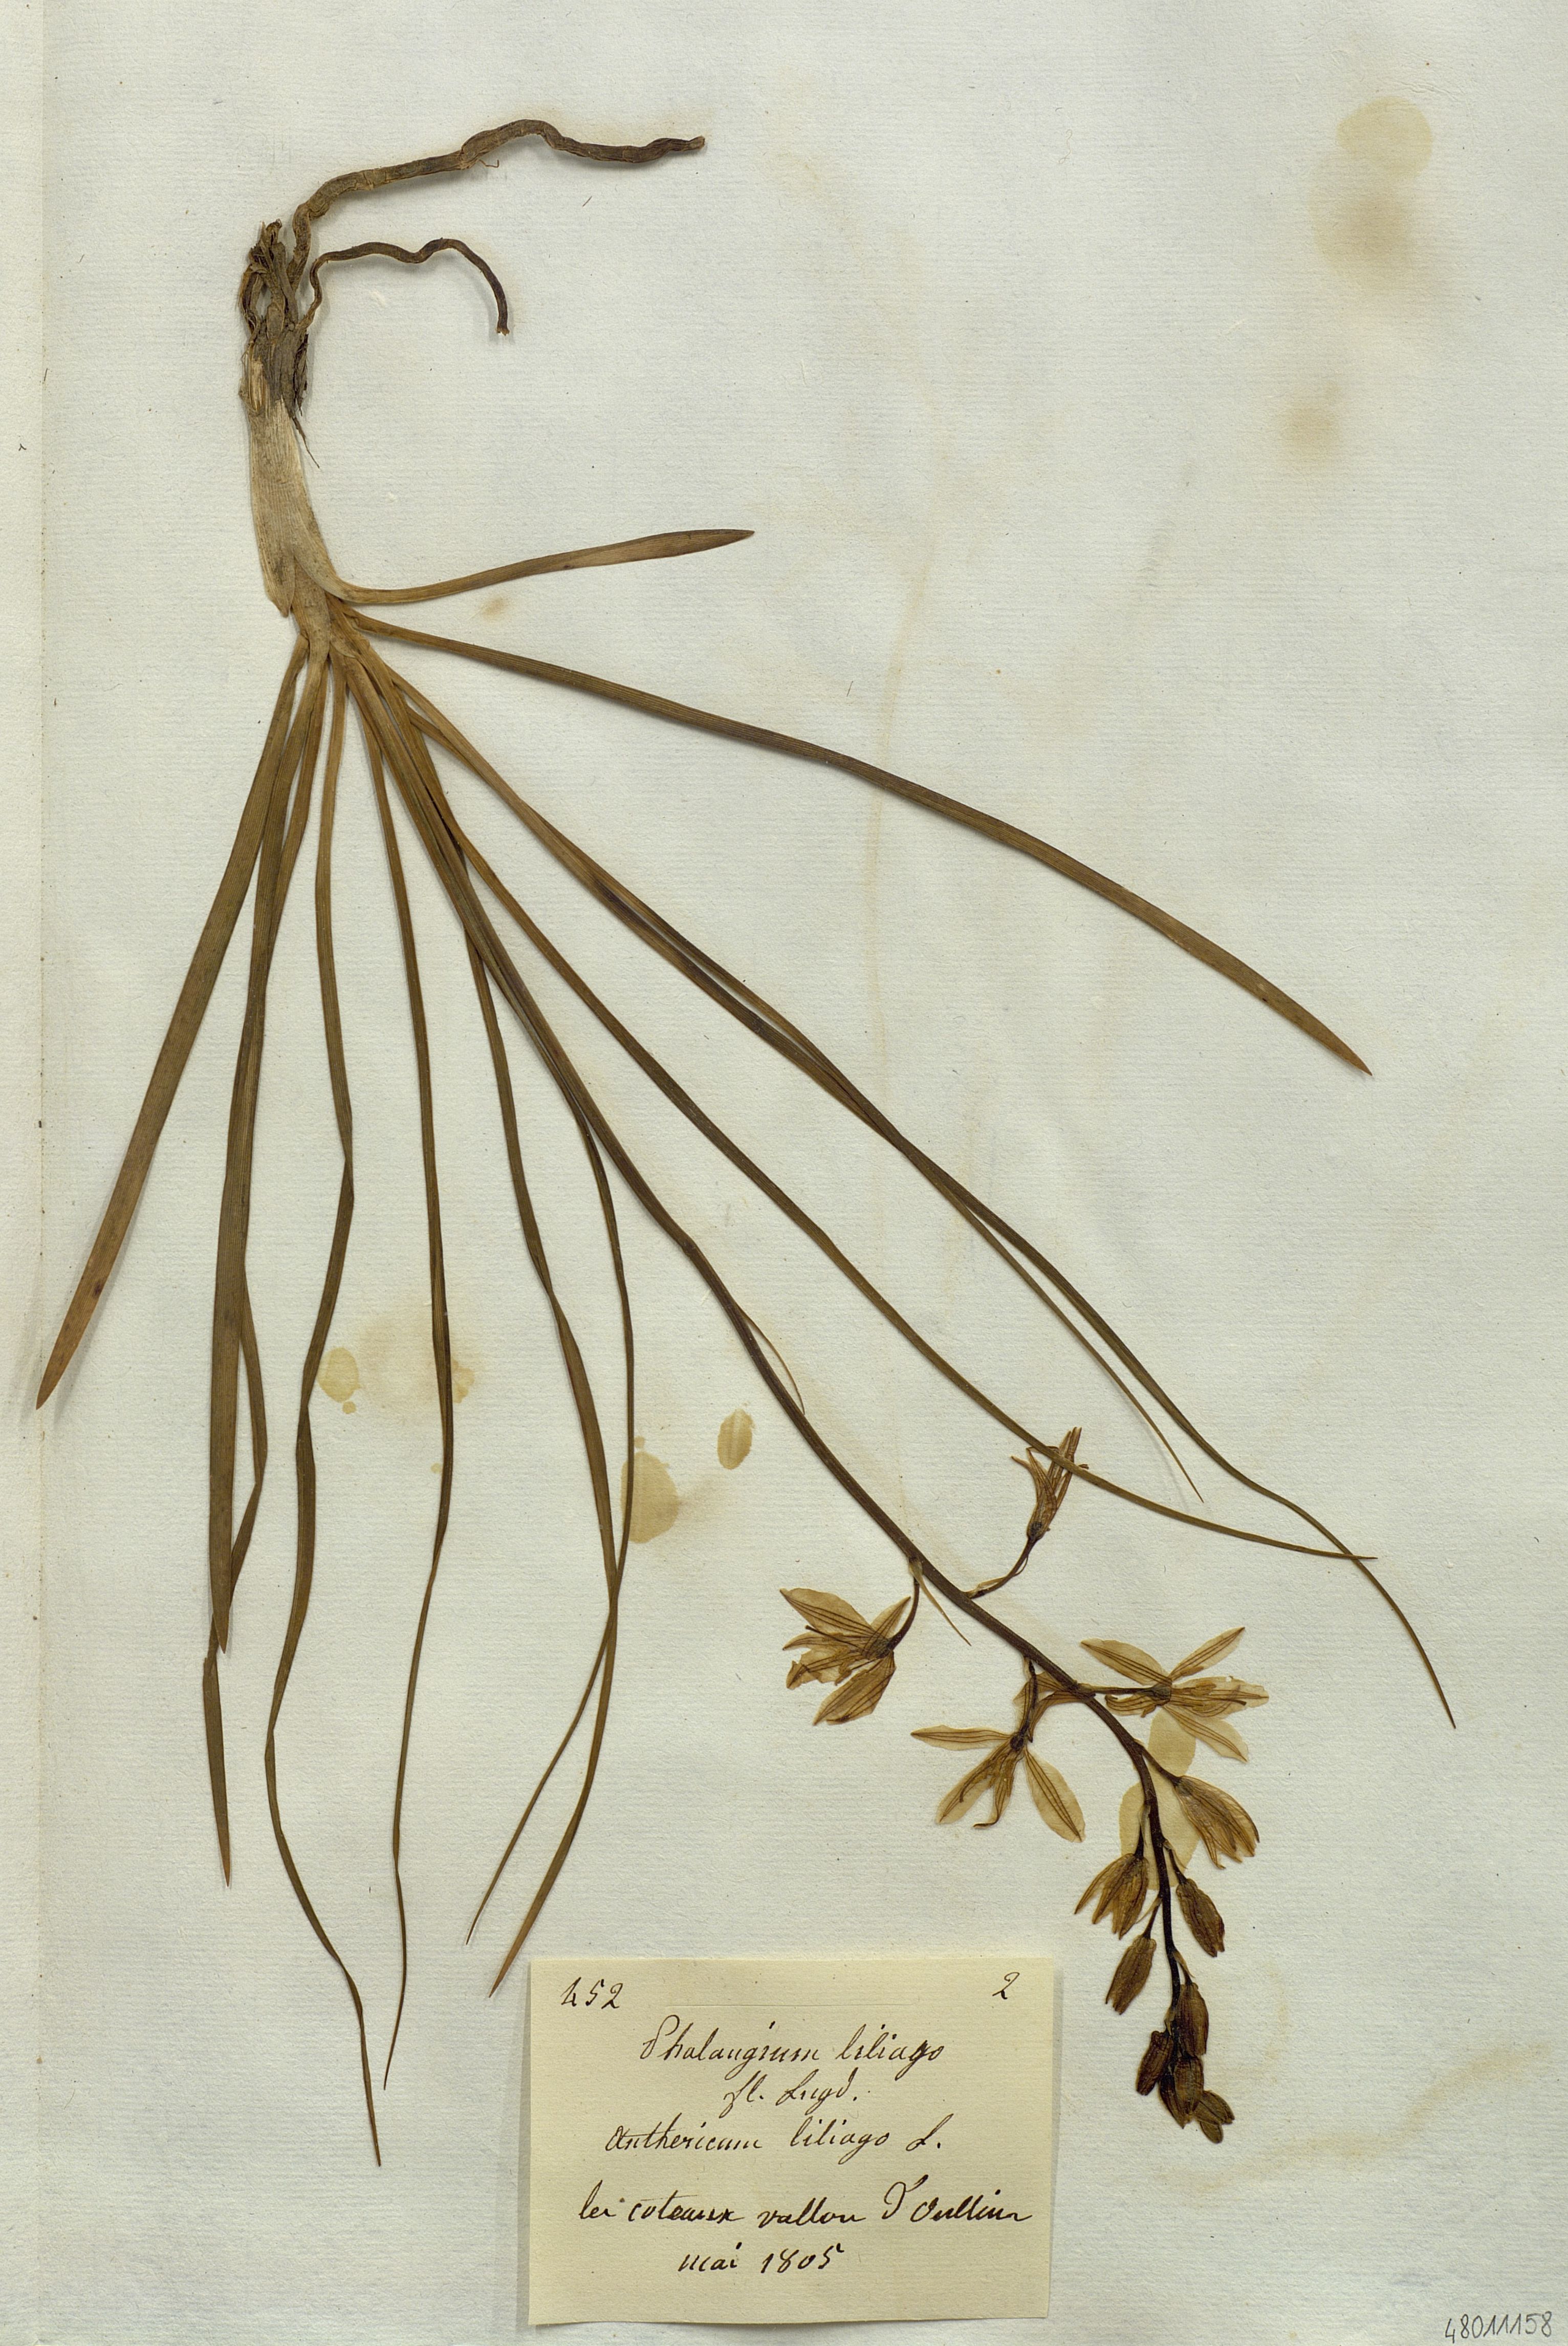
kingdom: Plantae
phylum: Tracheophyta
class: Liliopsida
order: Liliales
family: Liliaceae
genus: Phalangium
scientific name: Phalangium
